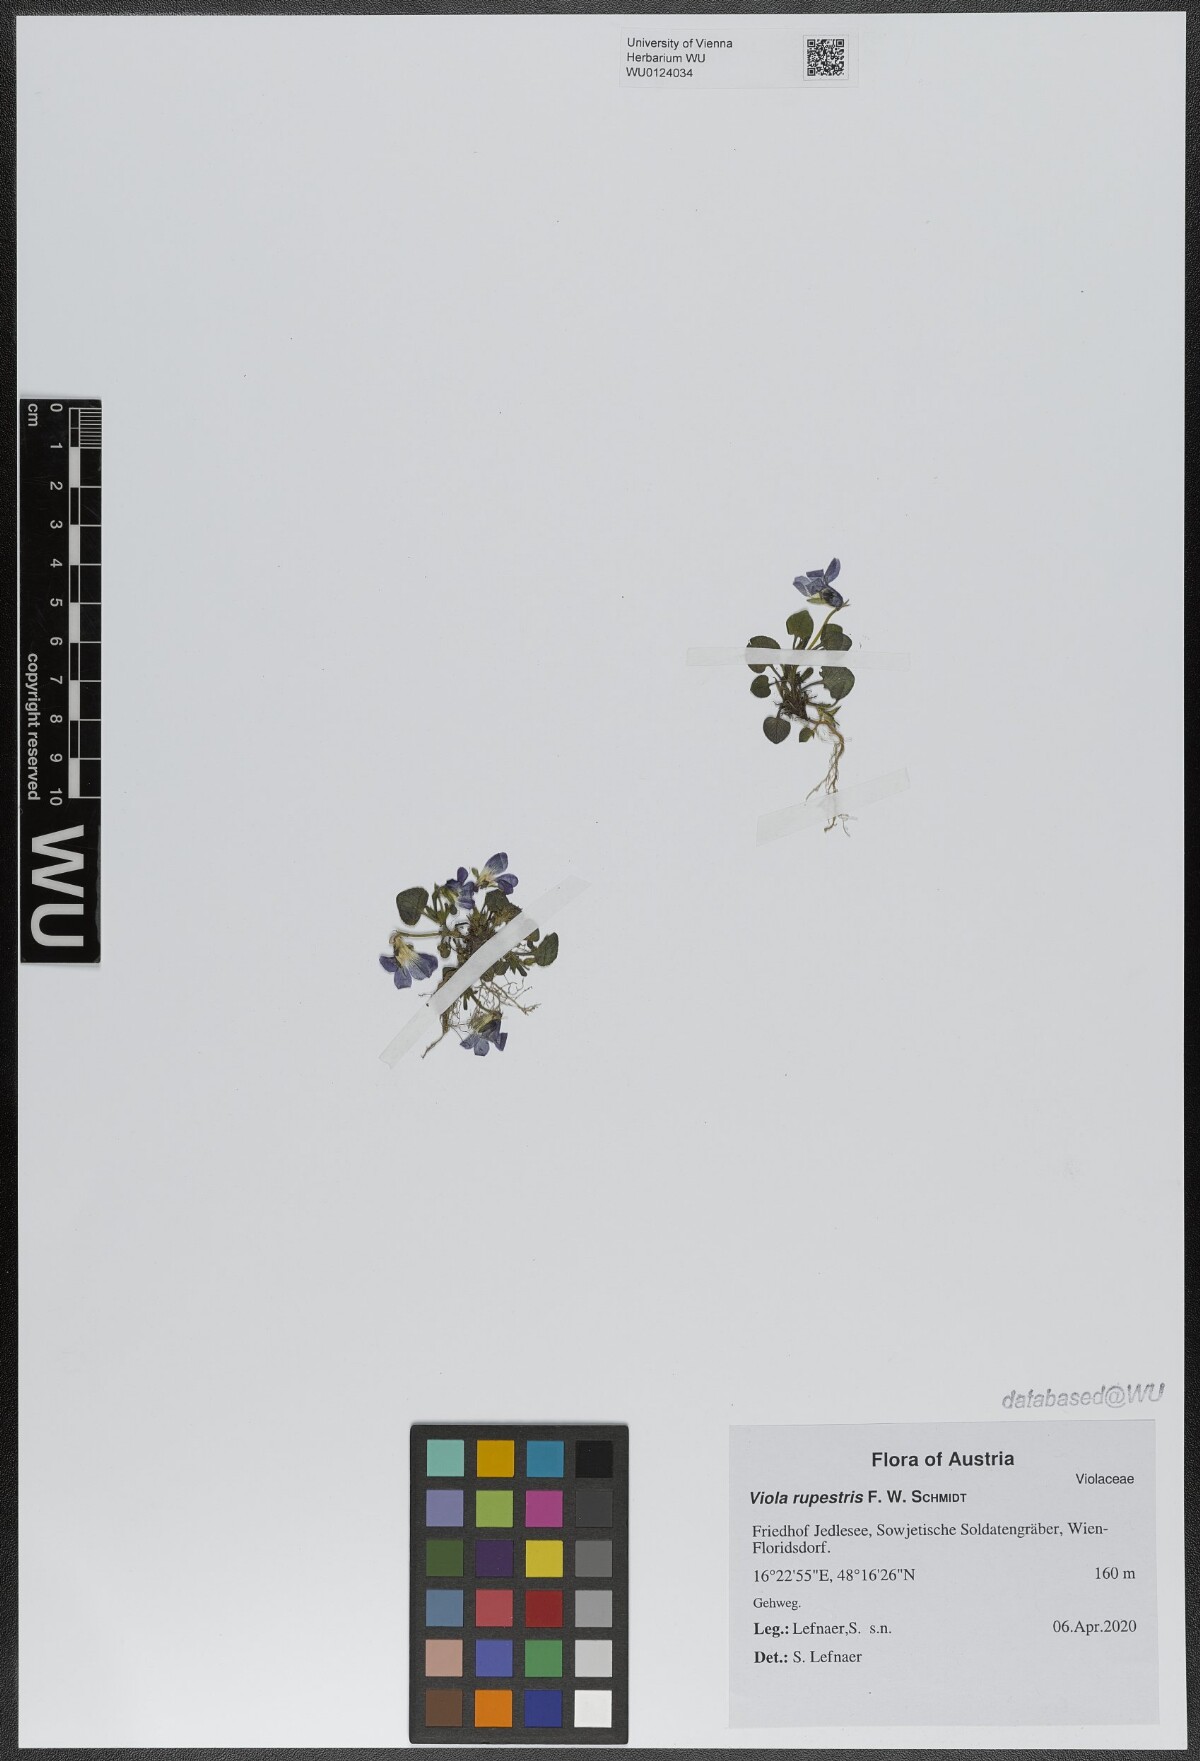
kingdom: Plantae
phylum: Tracheophyta
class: Magnoliopsida
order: Malpighiales
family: Violaceae
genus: Viola
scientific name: Viola rupestris
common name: Teesdale violet
